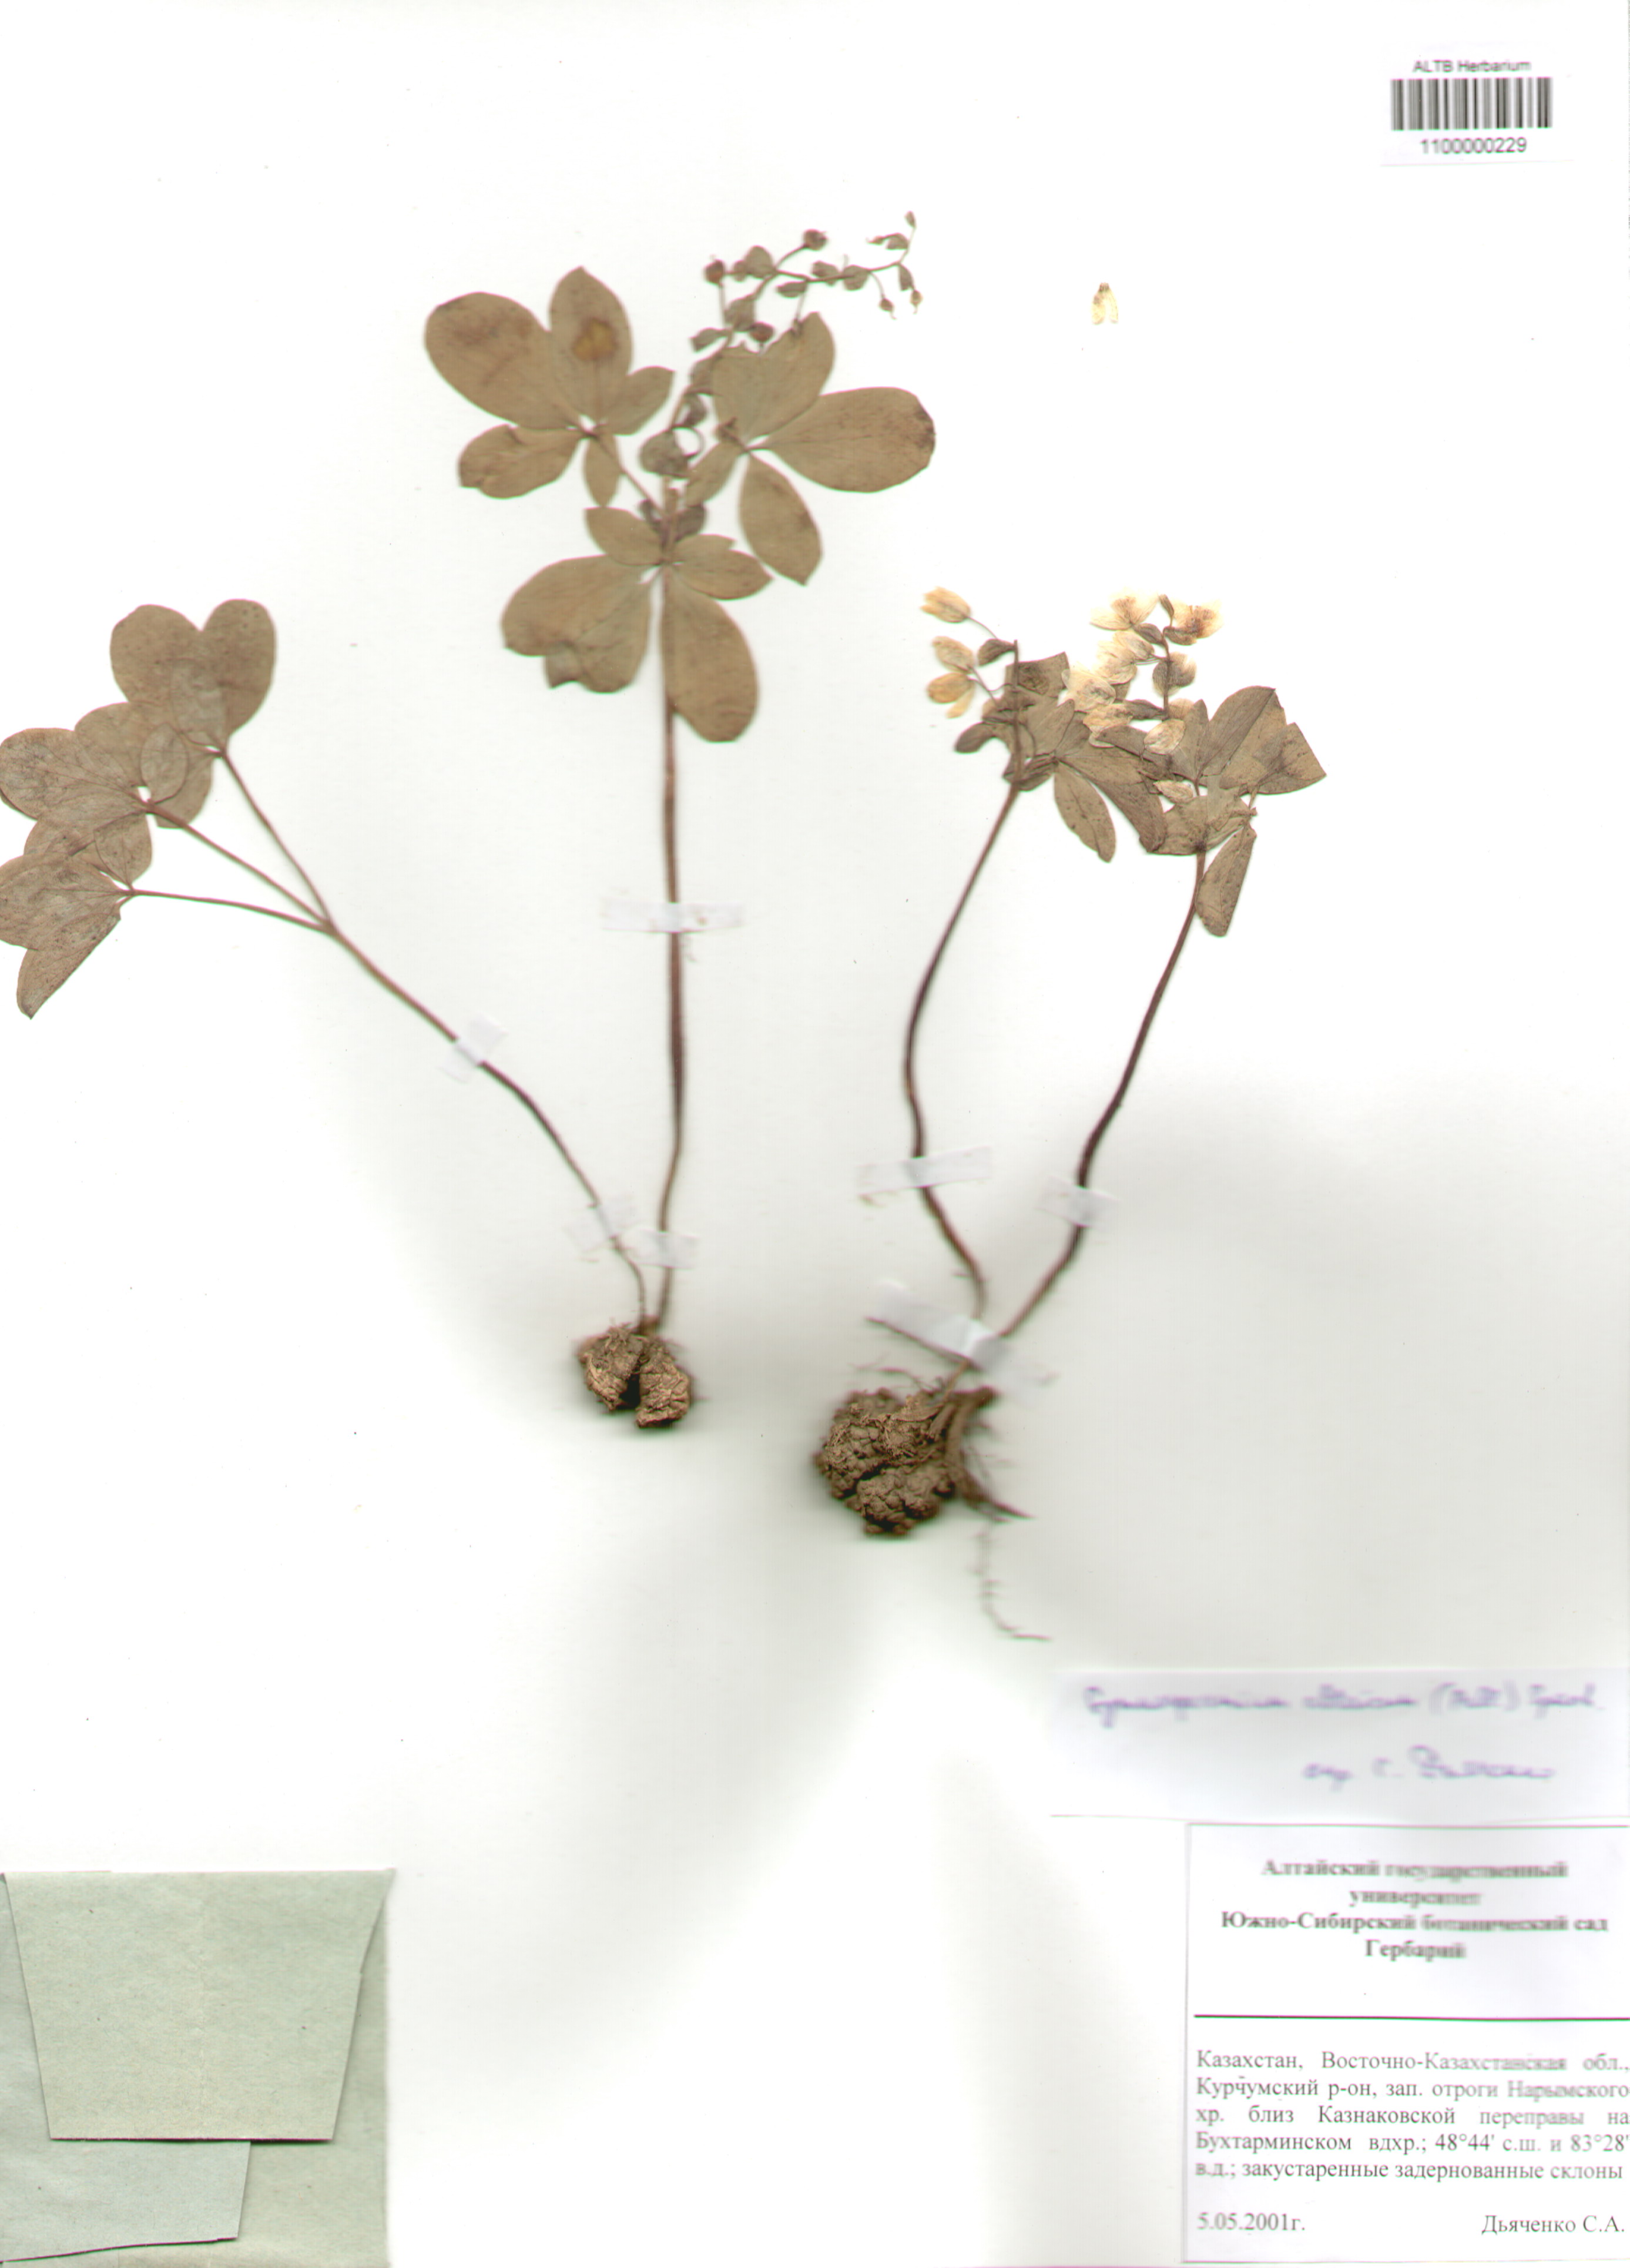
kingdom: Plantae
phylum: Tracheophyta
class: Magnoliopsida
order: Ranunculales
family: Berberidaceae
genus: Gymnospermium
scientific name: Gymnospermium altaicum
